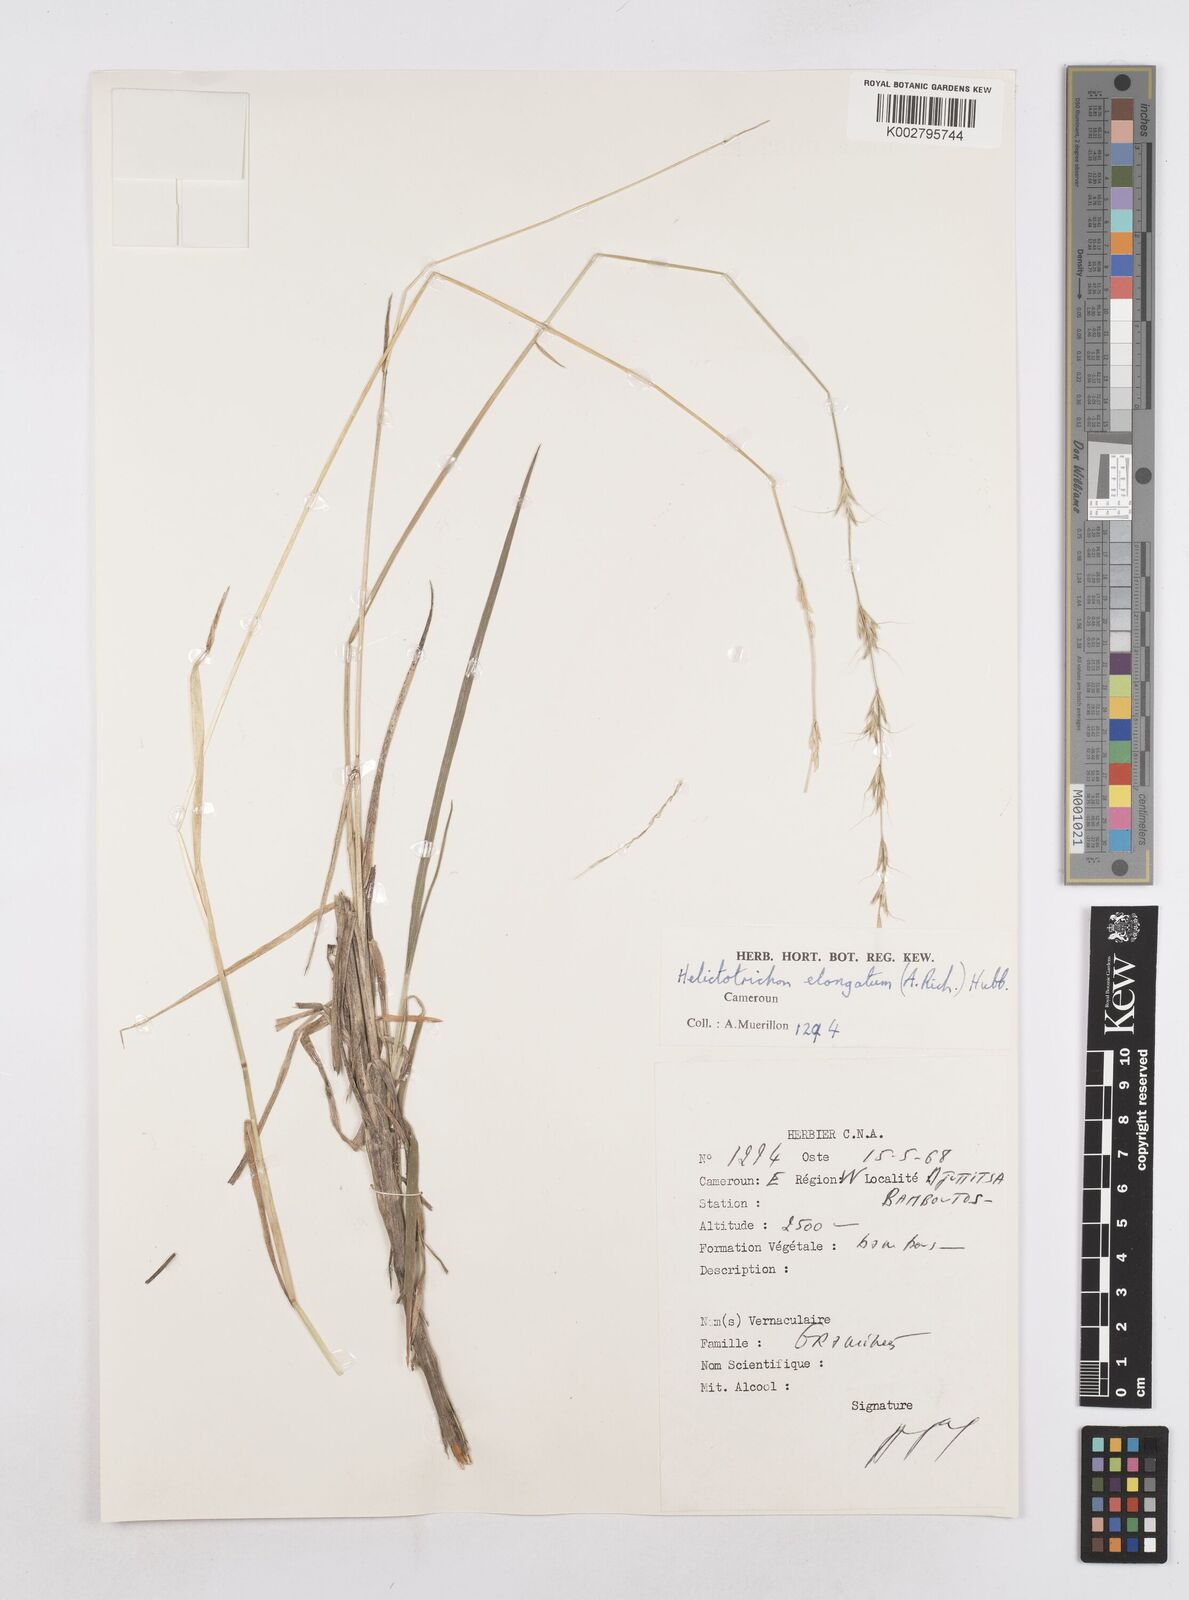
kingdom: Plantae
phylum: Tracheophyta
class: Liliopsida
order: Poales
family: Poaceae
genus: Trisetopsis
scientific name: Trisetopsis elongata
